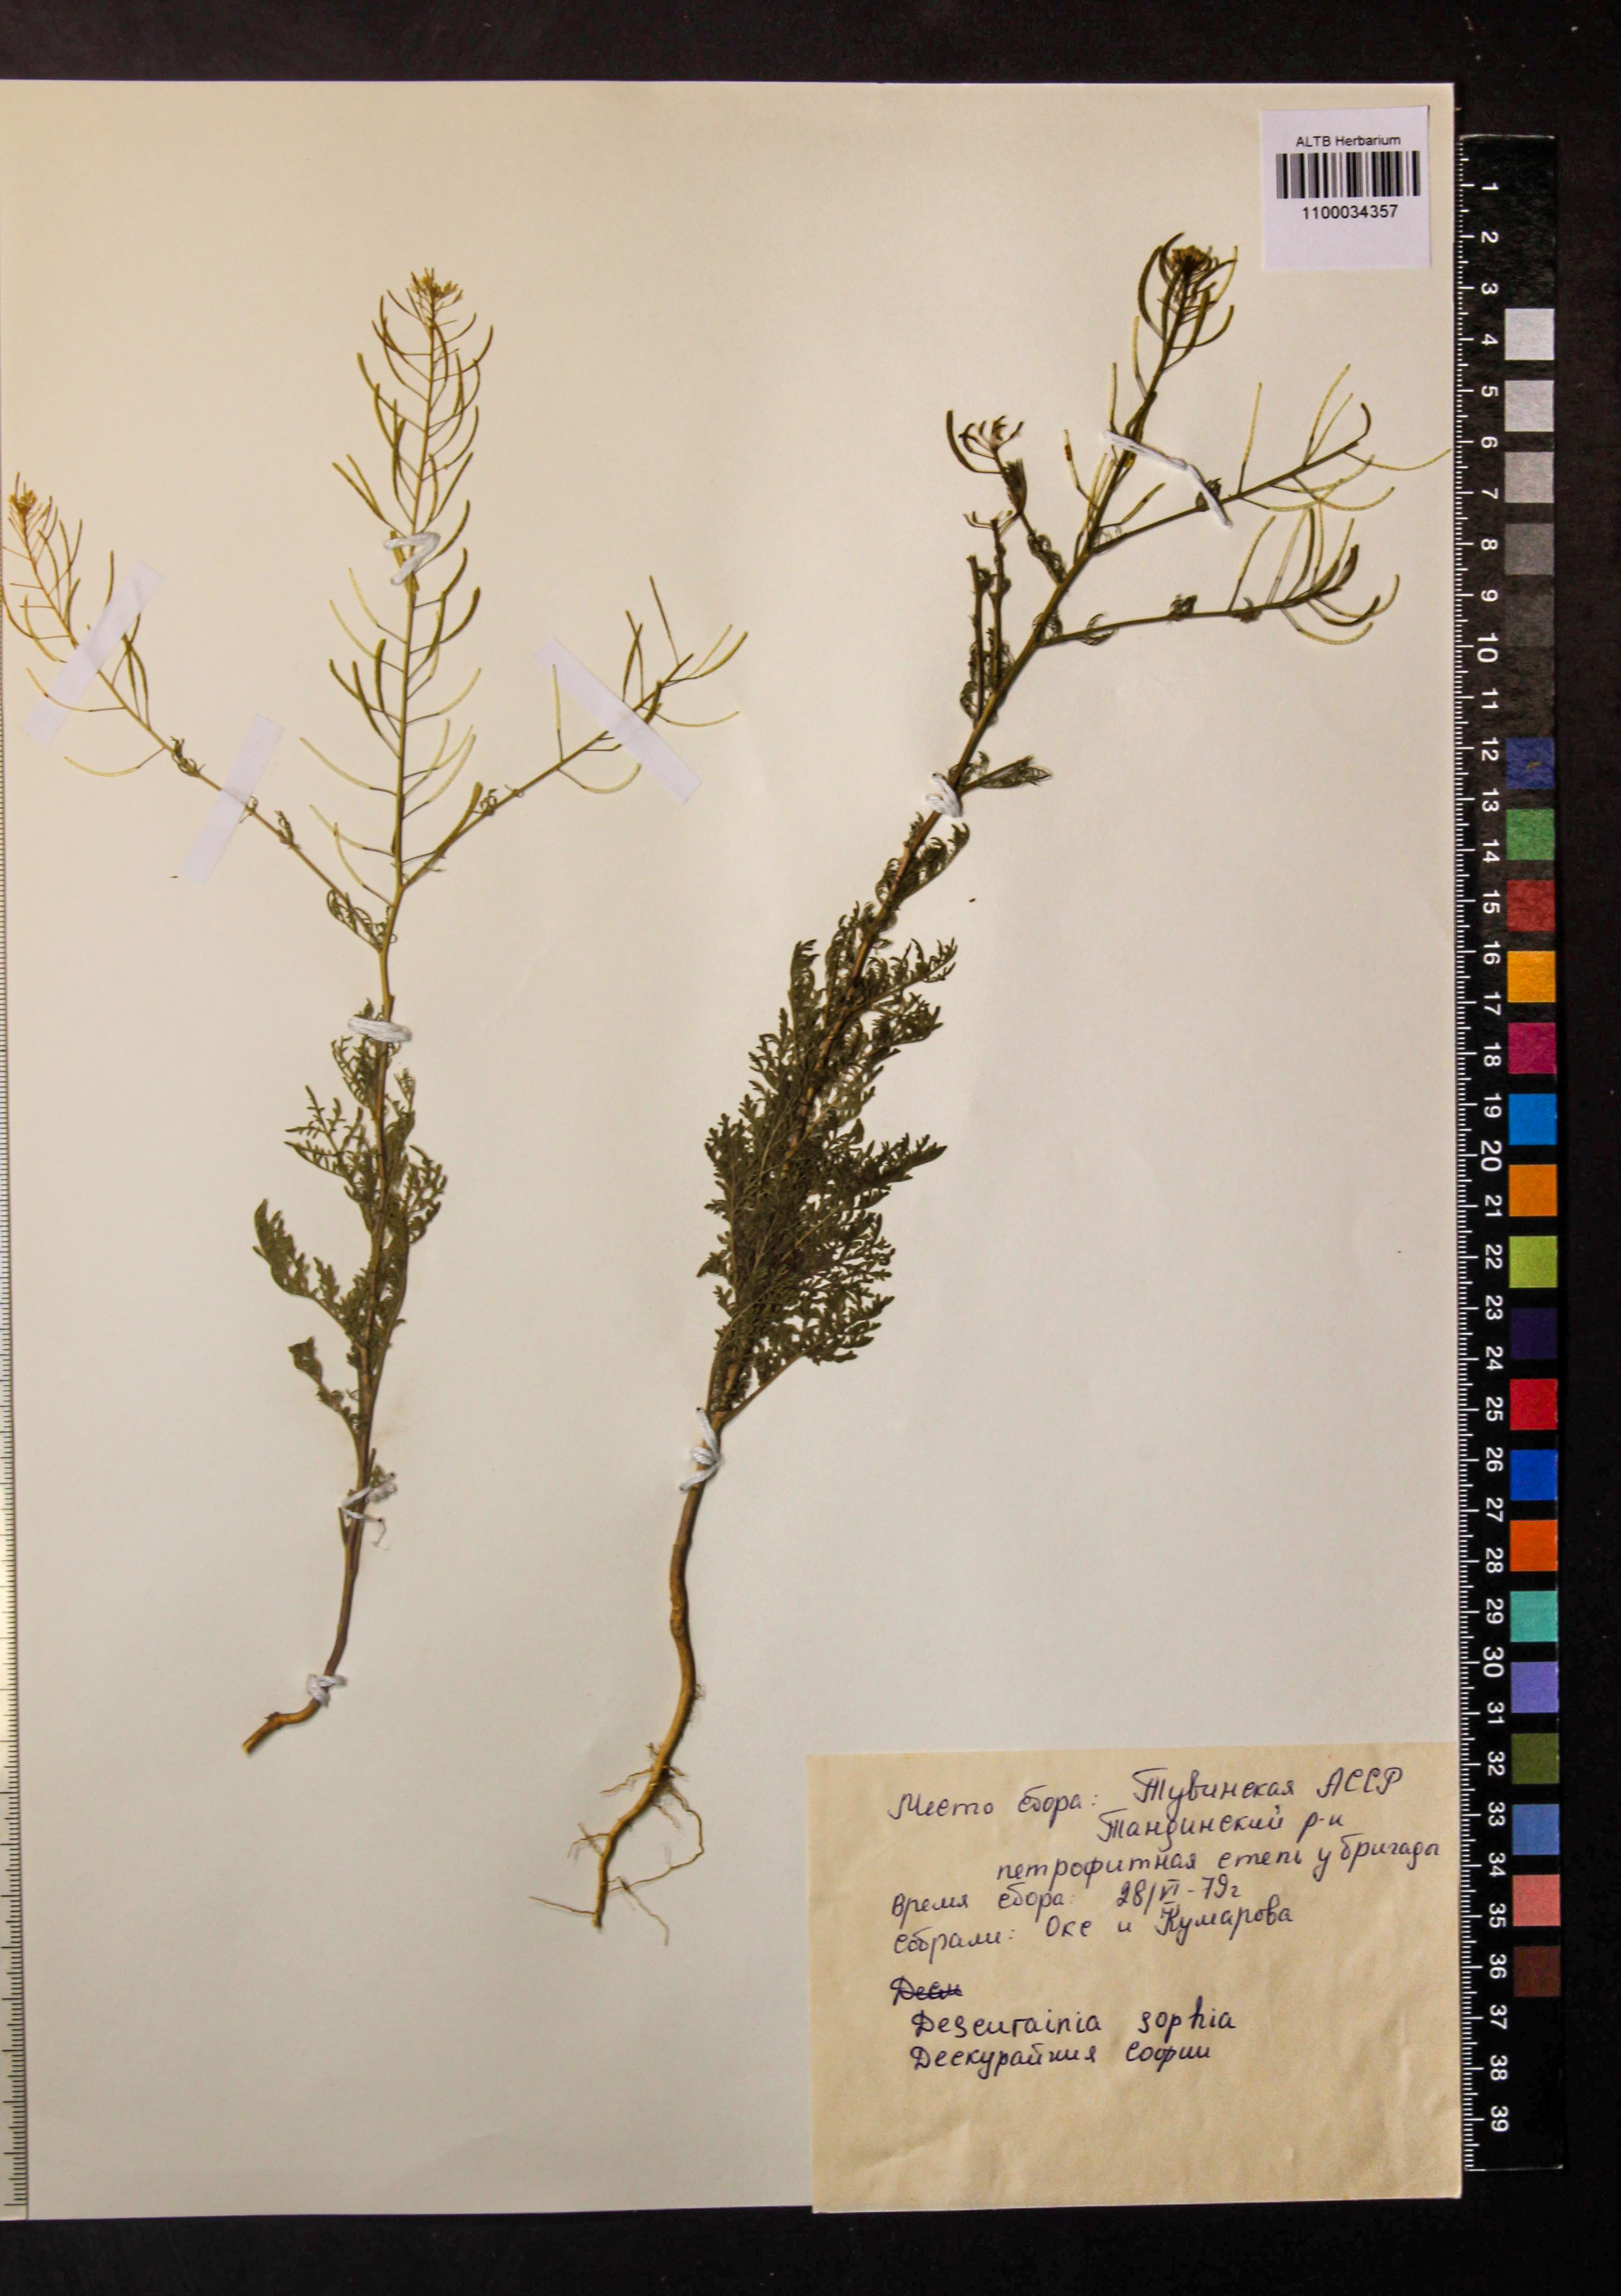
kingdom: Plantae
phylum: Tracheophyta
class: Magnoliopsida
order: Brassicales
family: Brassicaceae
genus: Descurainia
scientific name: Descurainia sophia
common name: Flixweed
